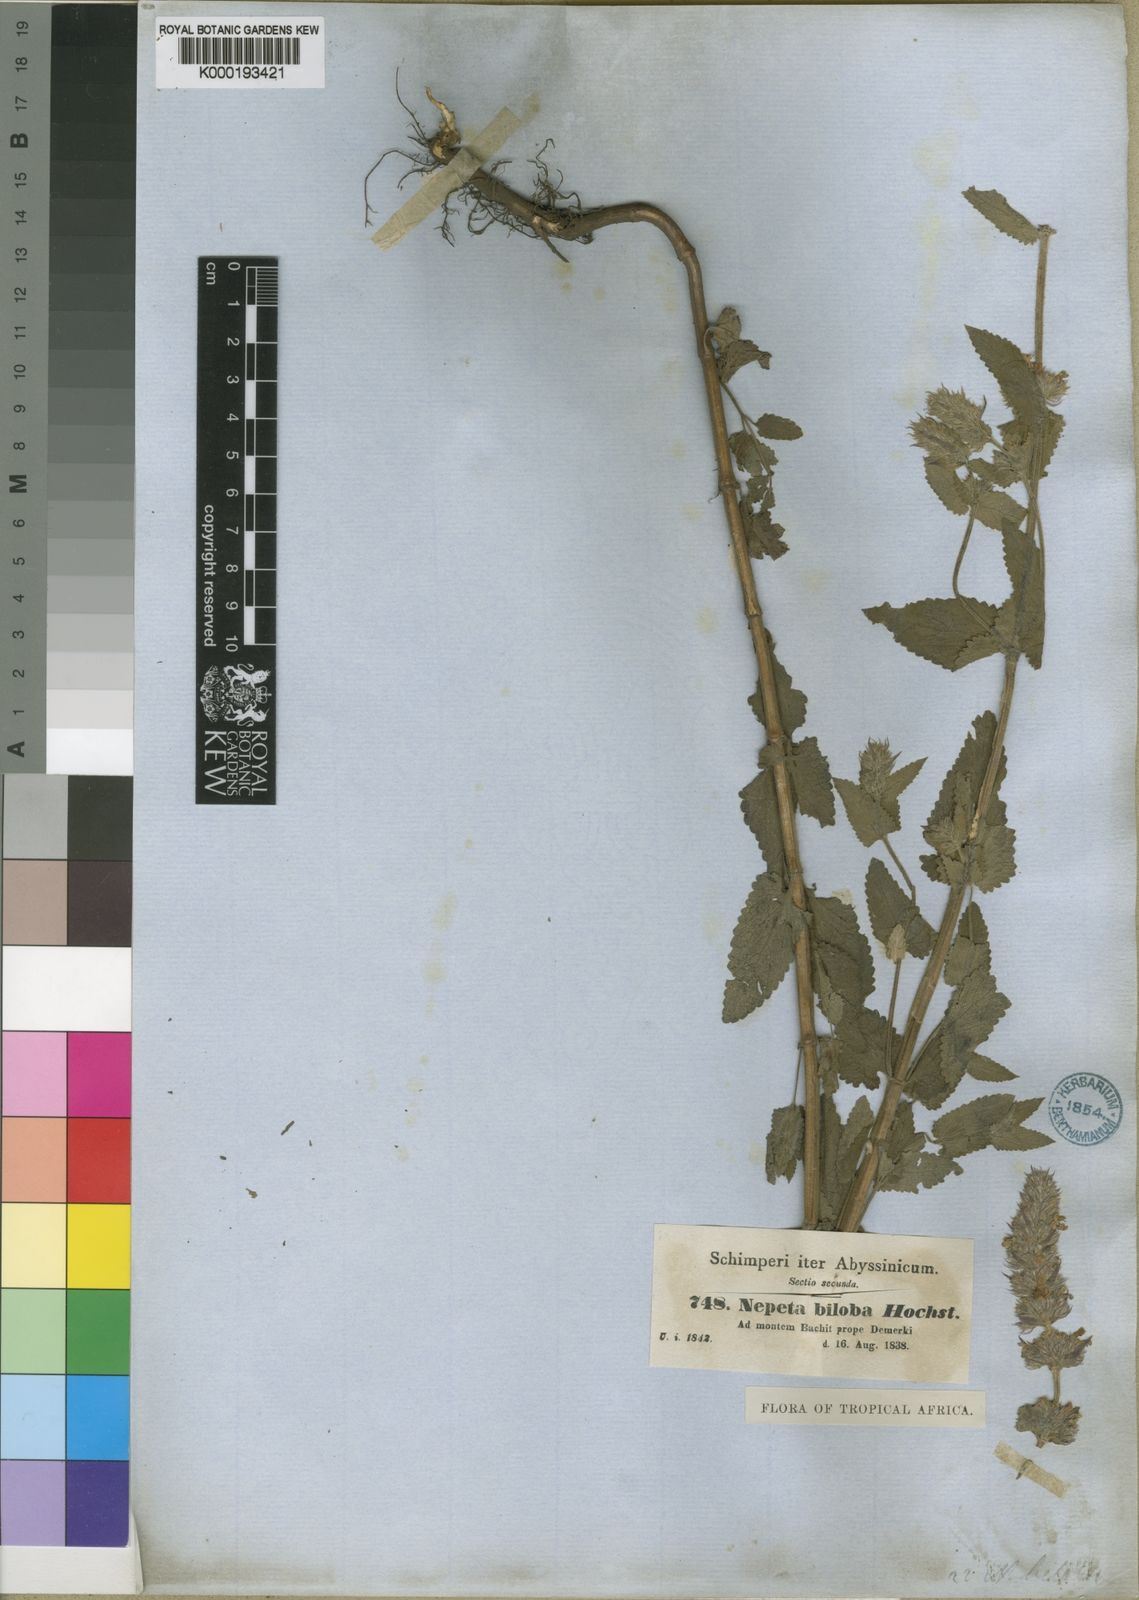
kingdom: Plantae
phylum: Tracheophyta
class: Magnoliopsida
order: Lamiales
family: Lamiaceae
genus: Nepeta
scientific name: Nepeta azurea
